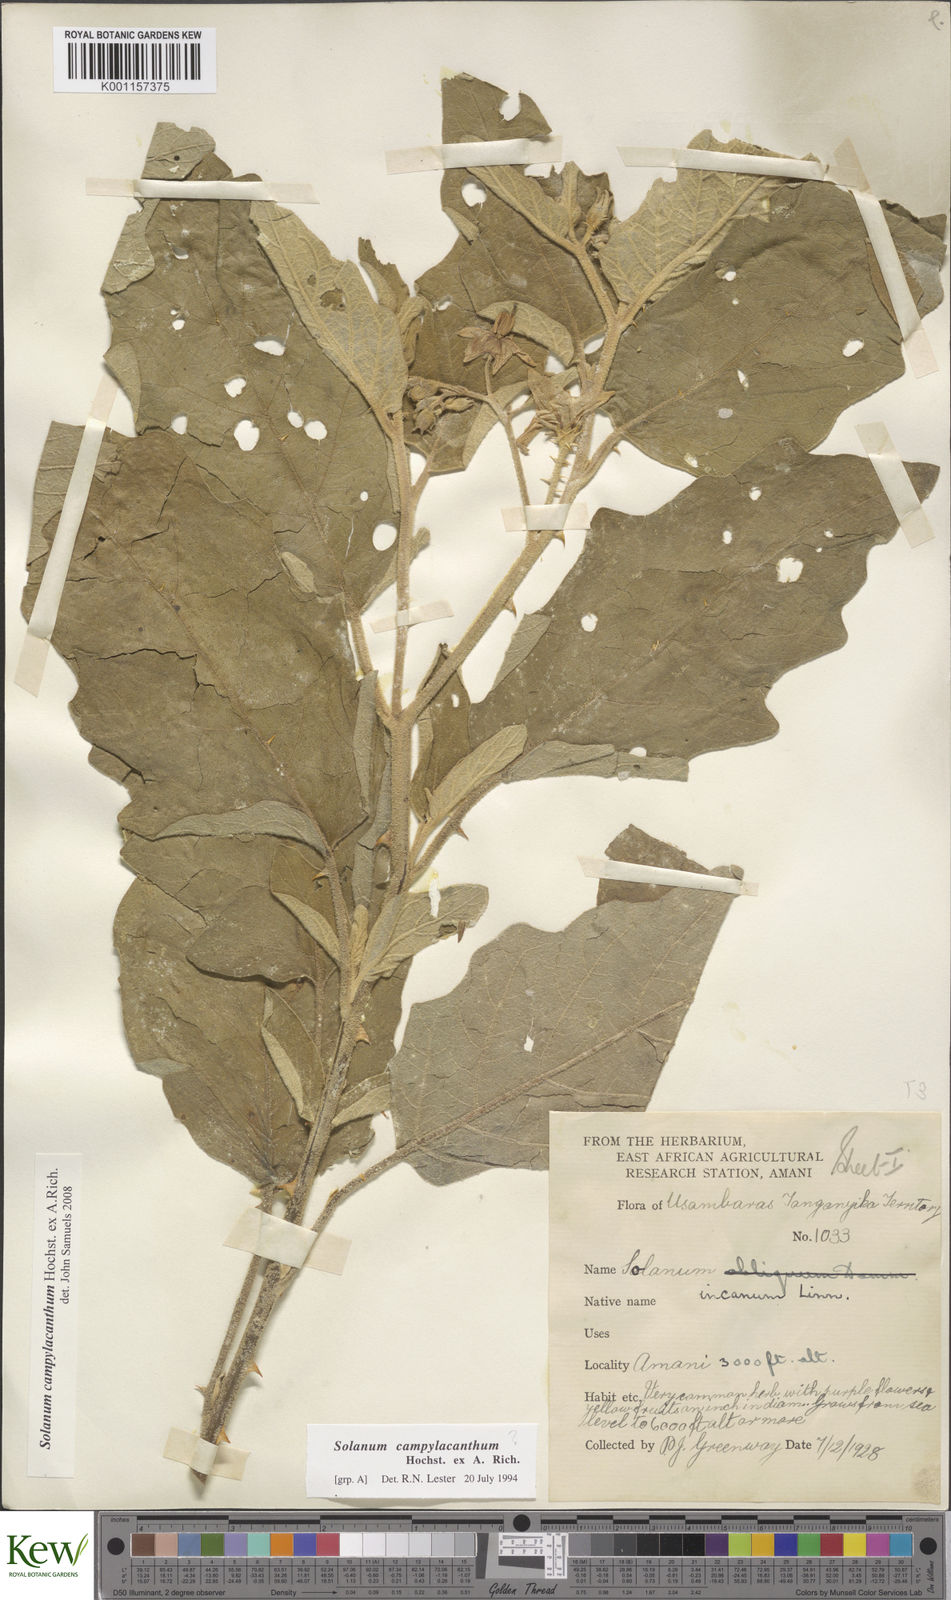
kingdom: Plantae
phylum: Tracheophyta
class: Magnoliopsida
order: Solanales
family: Solanaceae
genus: Solanum
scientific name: Solanum campylacanthum
